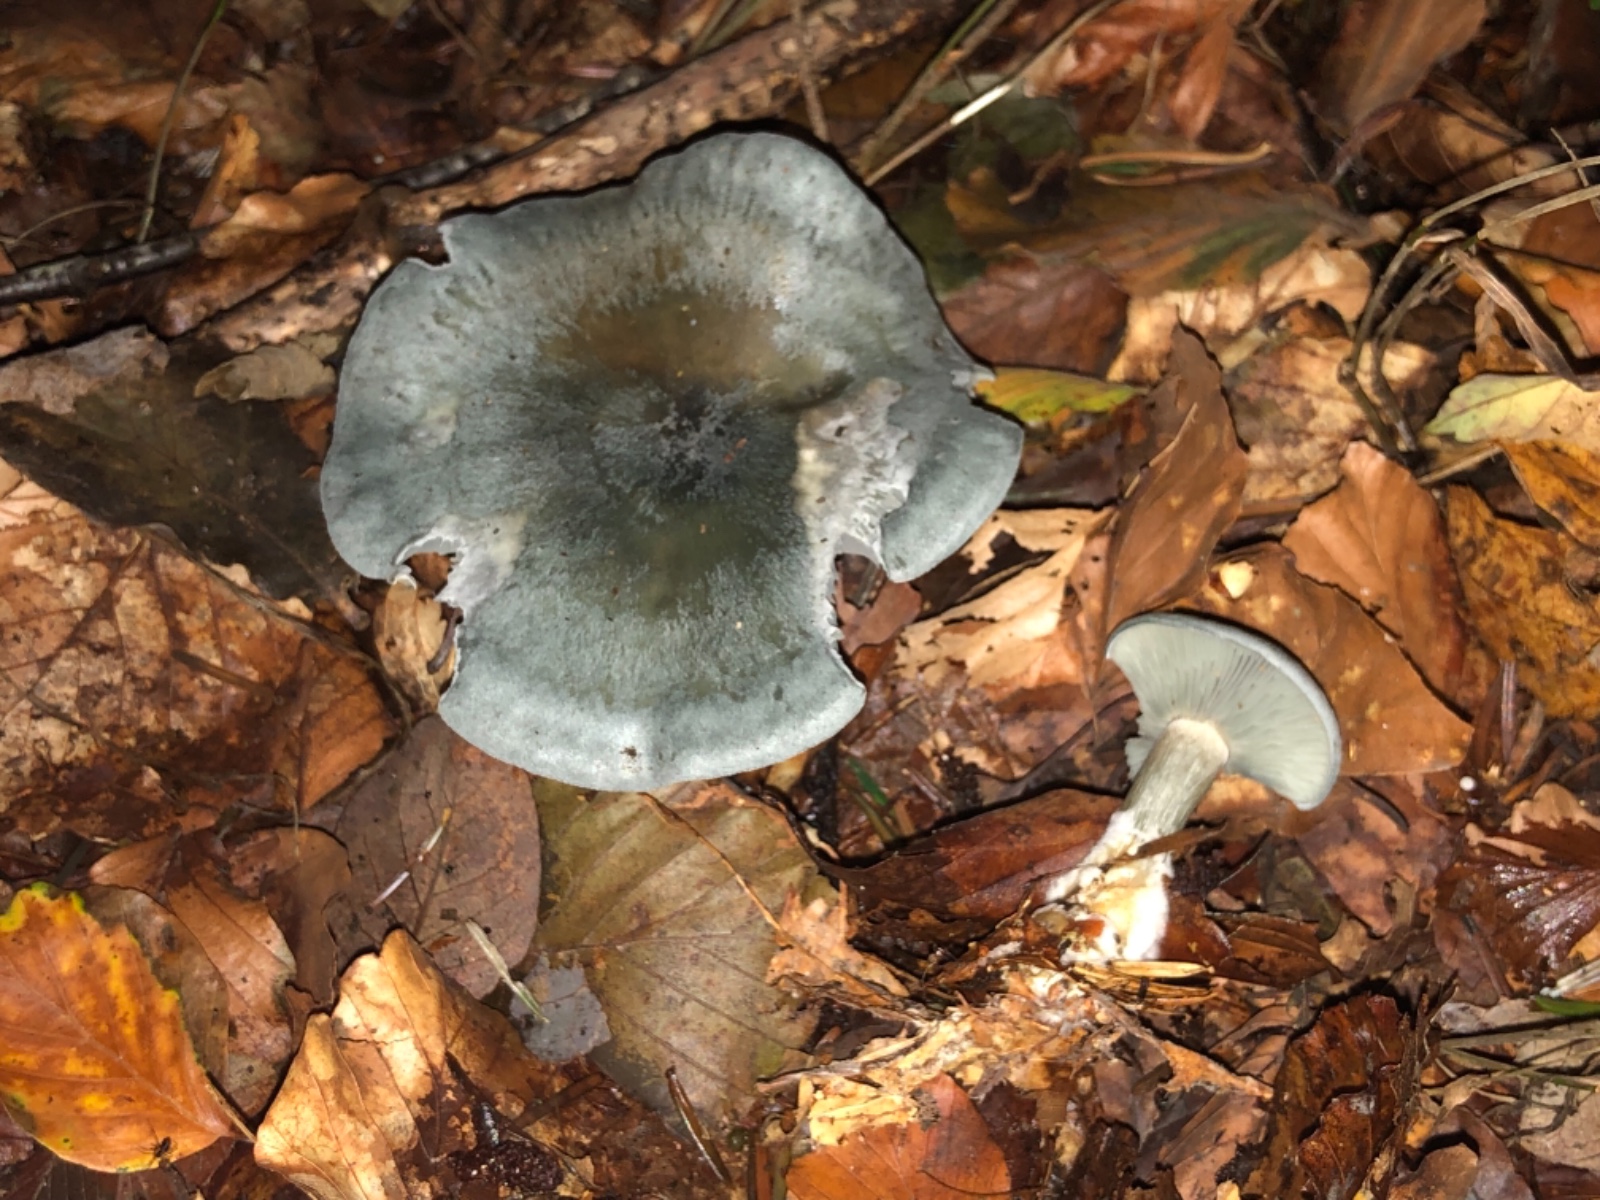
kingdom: Fungi
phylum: Basidiomycota
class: Agaricomycetes
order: Agaricales
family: Tricholomataceae
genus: Clitocybe
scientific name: Clitocybe odora
